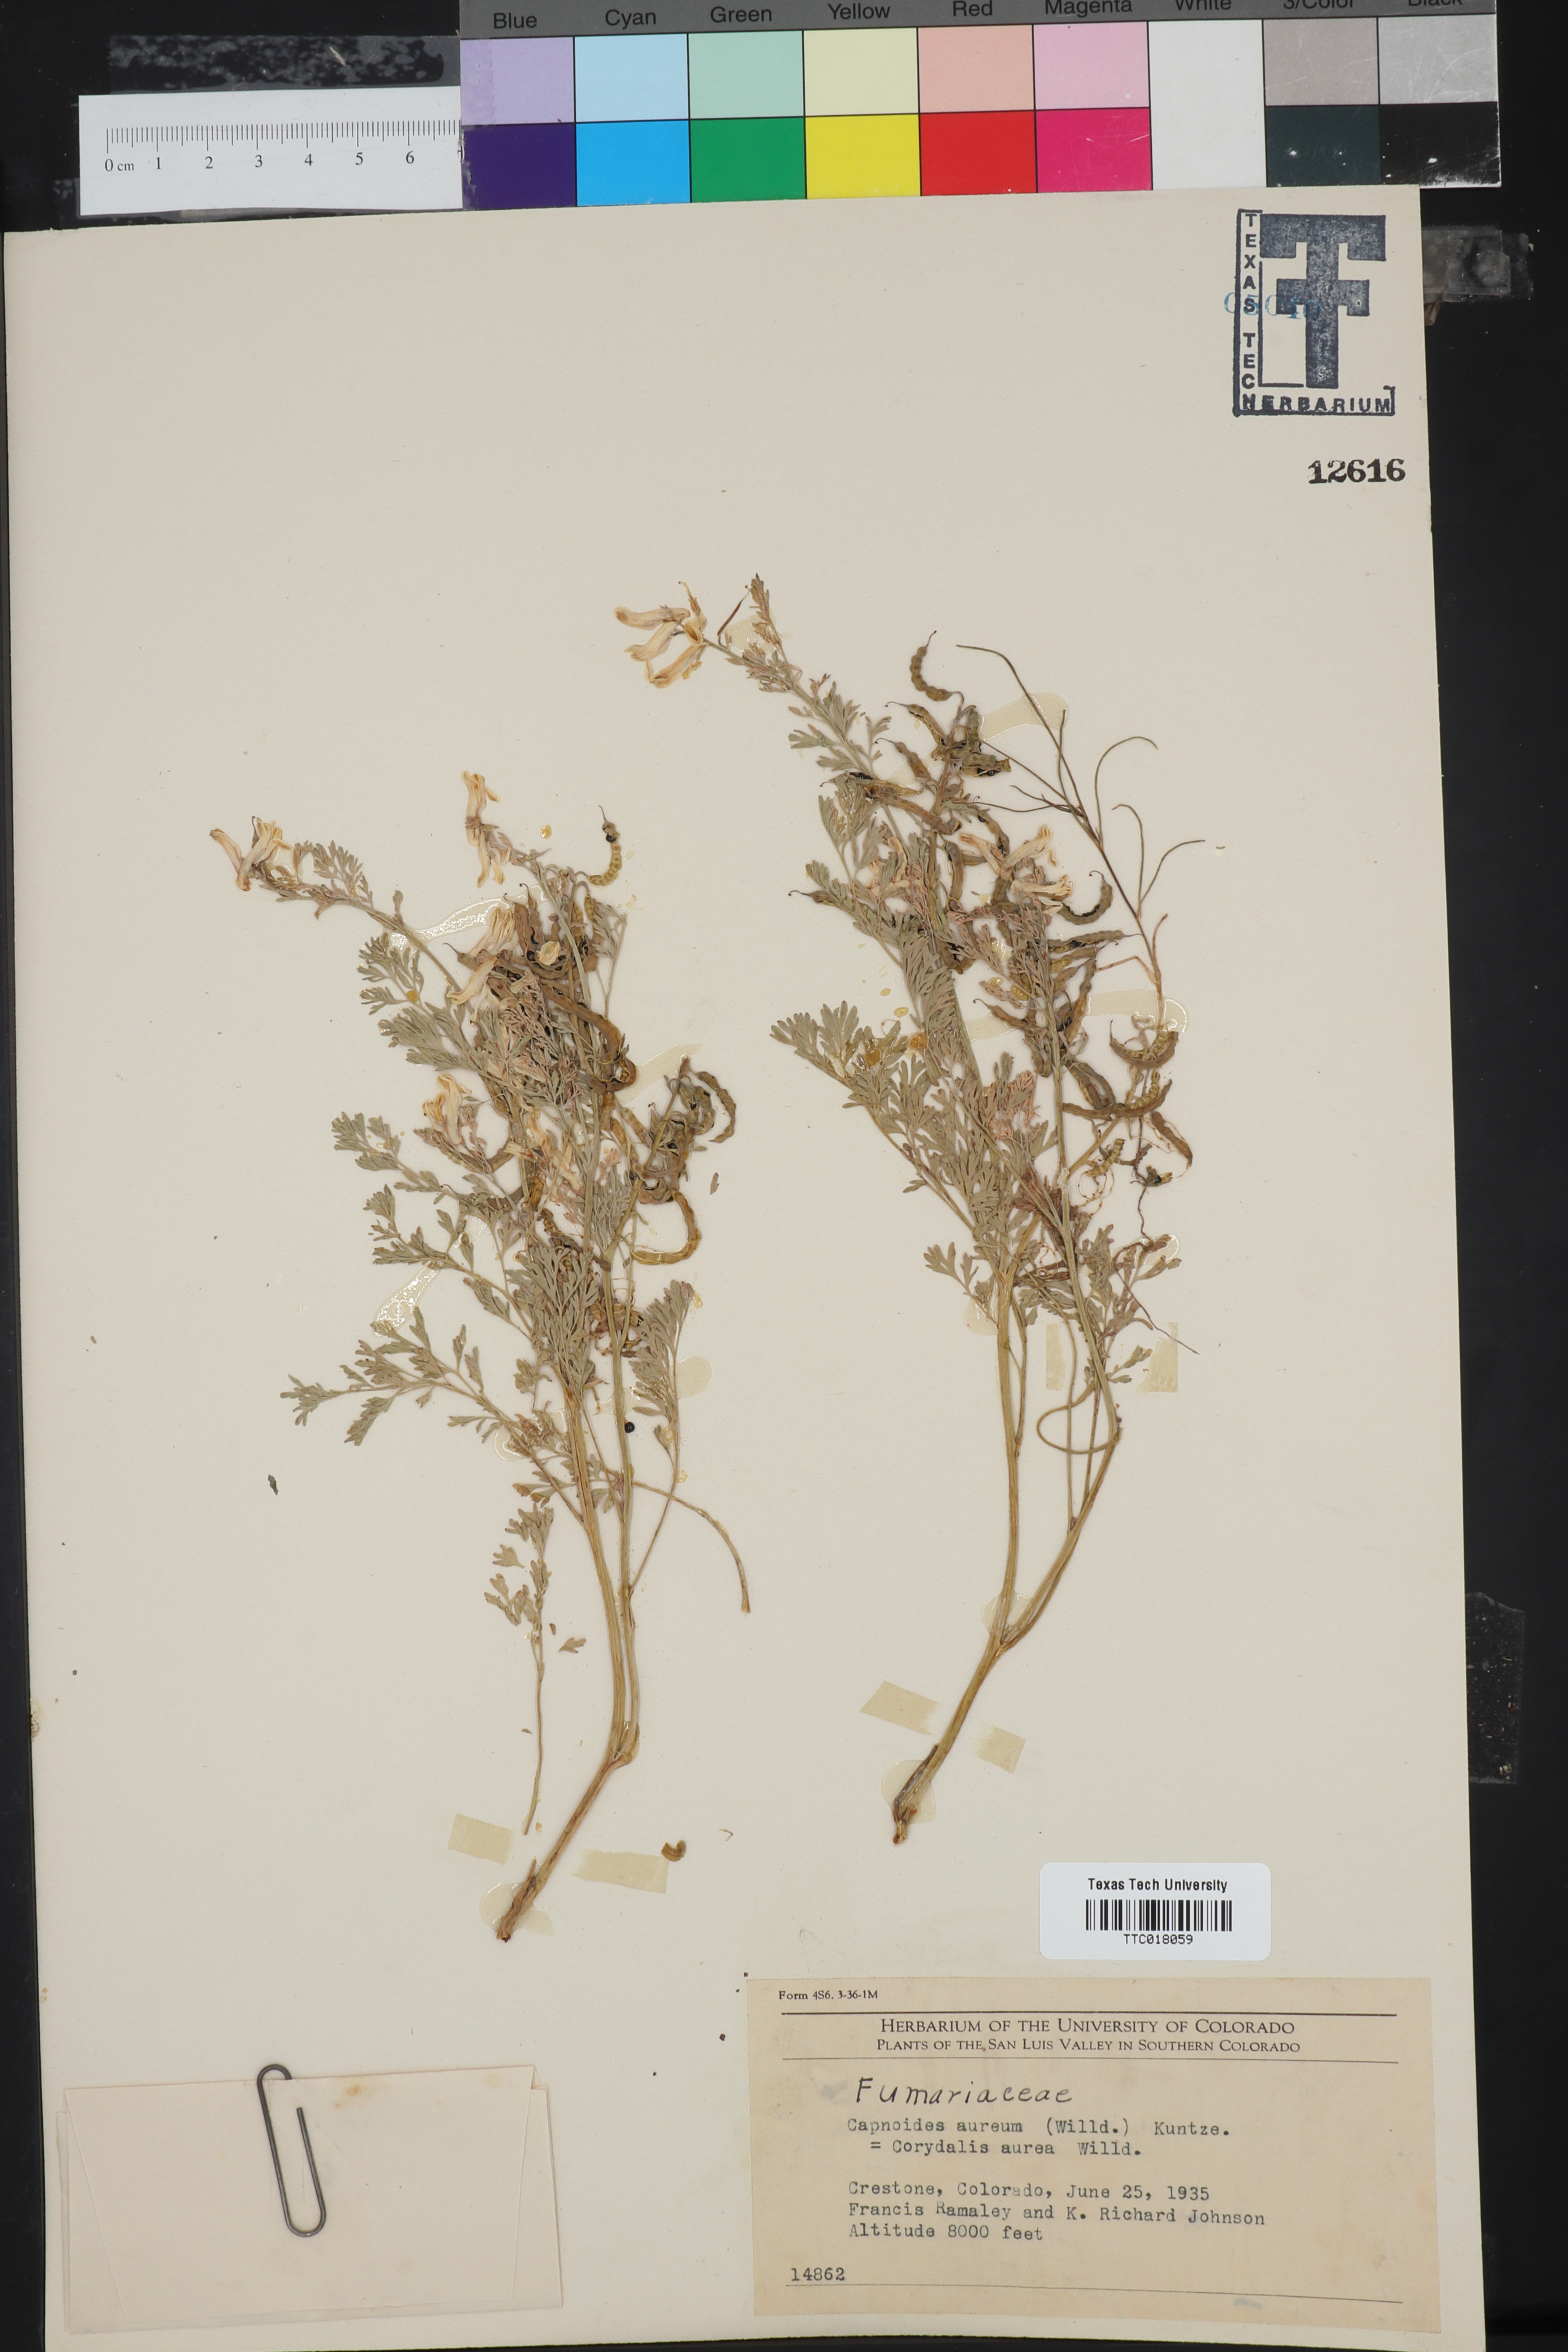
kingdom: Plantae
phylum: Tracheophyta
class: Magnoliopsida
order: Ranunculales
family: Papaveraceae
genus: Corydalis
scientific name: Corydalis aurea
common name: Golden corydalis
